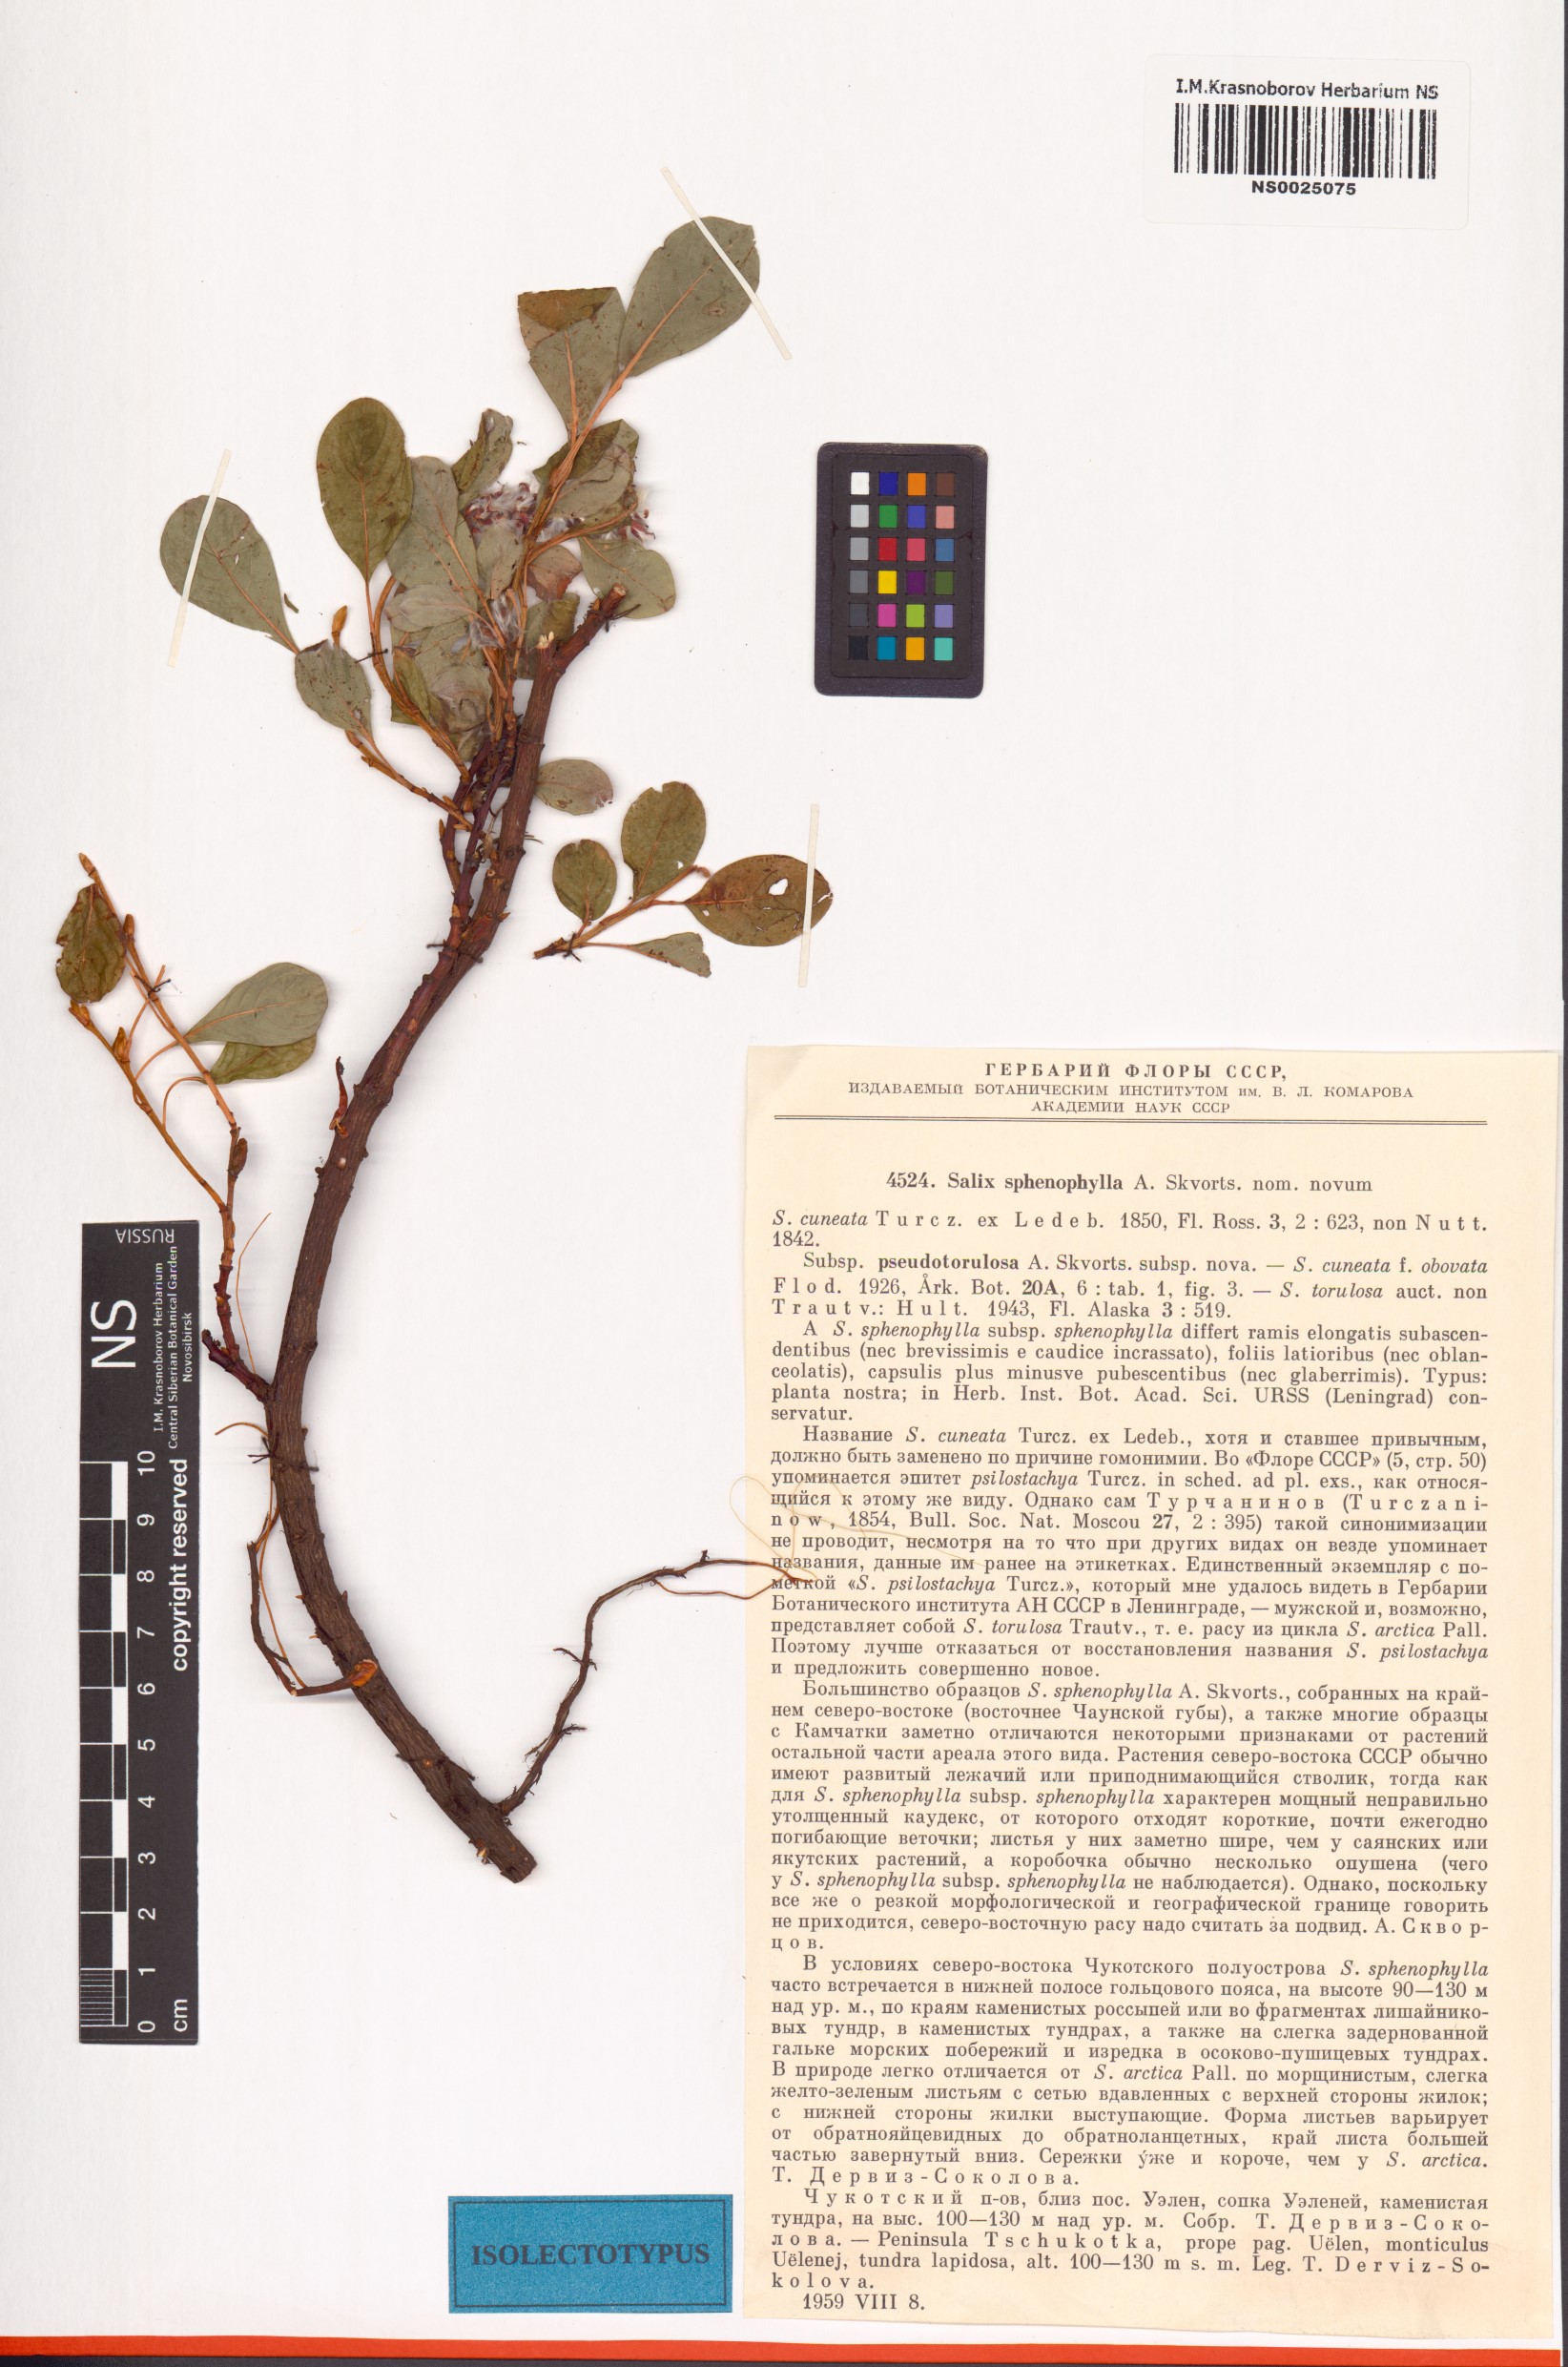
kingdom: Plantae
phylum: Tracheophyta
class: Magnoliopsida
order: Malpighiales
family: Salicaceae
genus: Salix
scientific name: Salix sphenophylla
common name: Wedge-leaved willow
